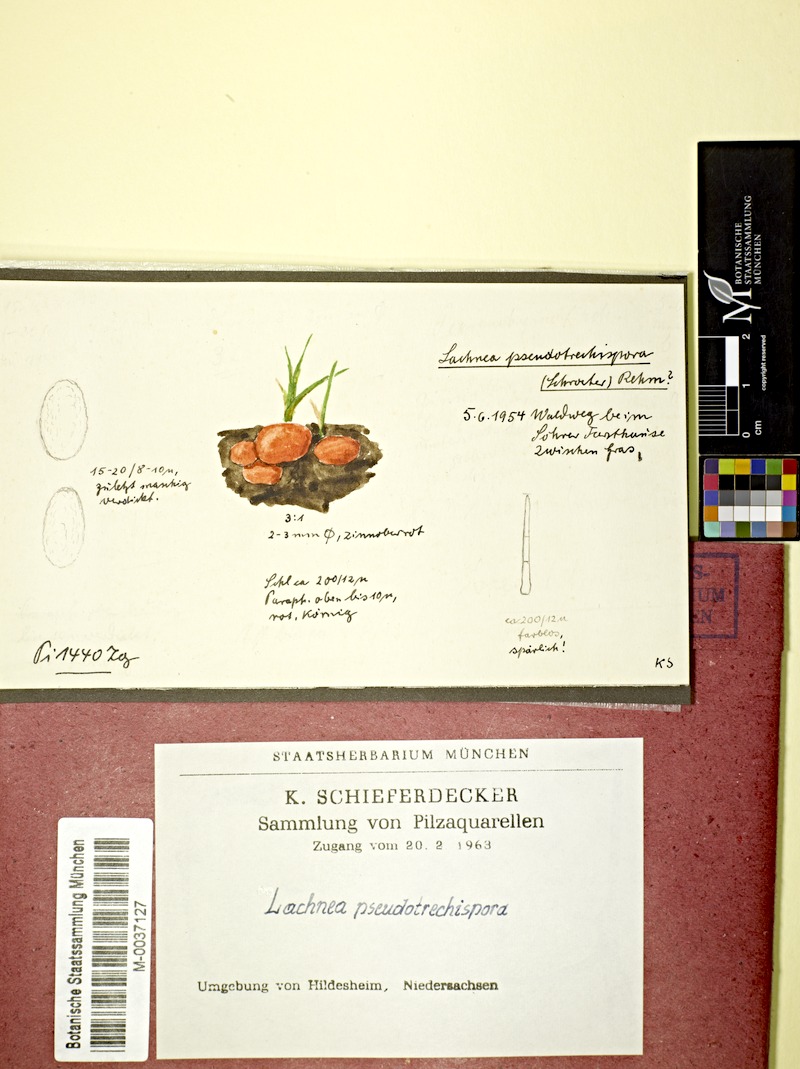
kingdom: Fungi
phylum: Ascomycota
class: Pezizomycetes
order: Pezizales
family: Pyronemataceae
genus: Scutellinia
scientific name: Scutellinia pseudotrechispora
